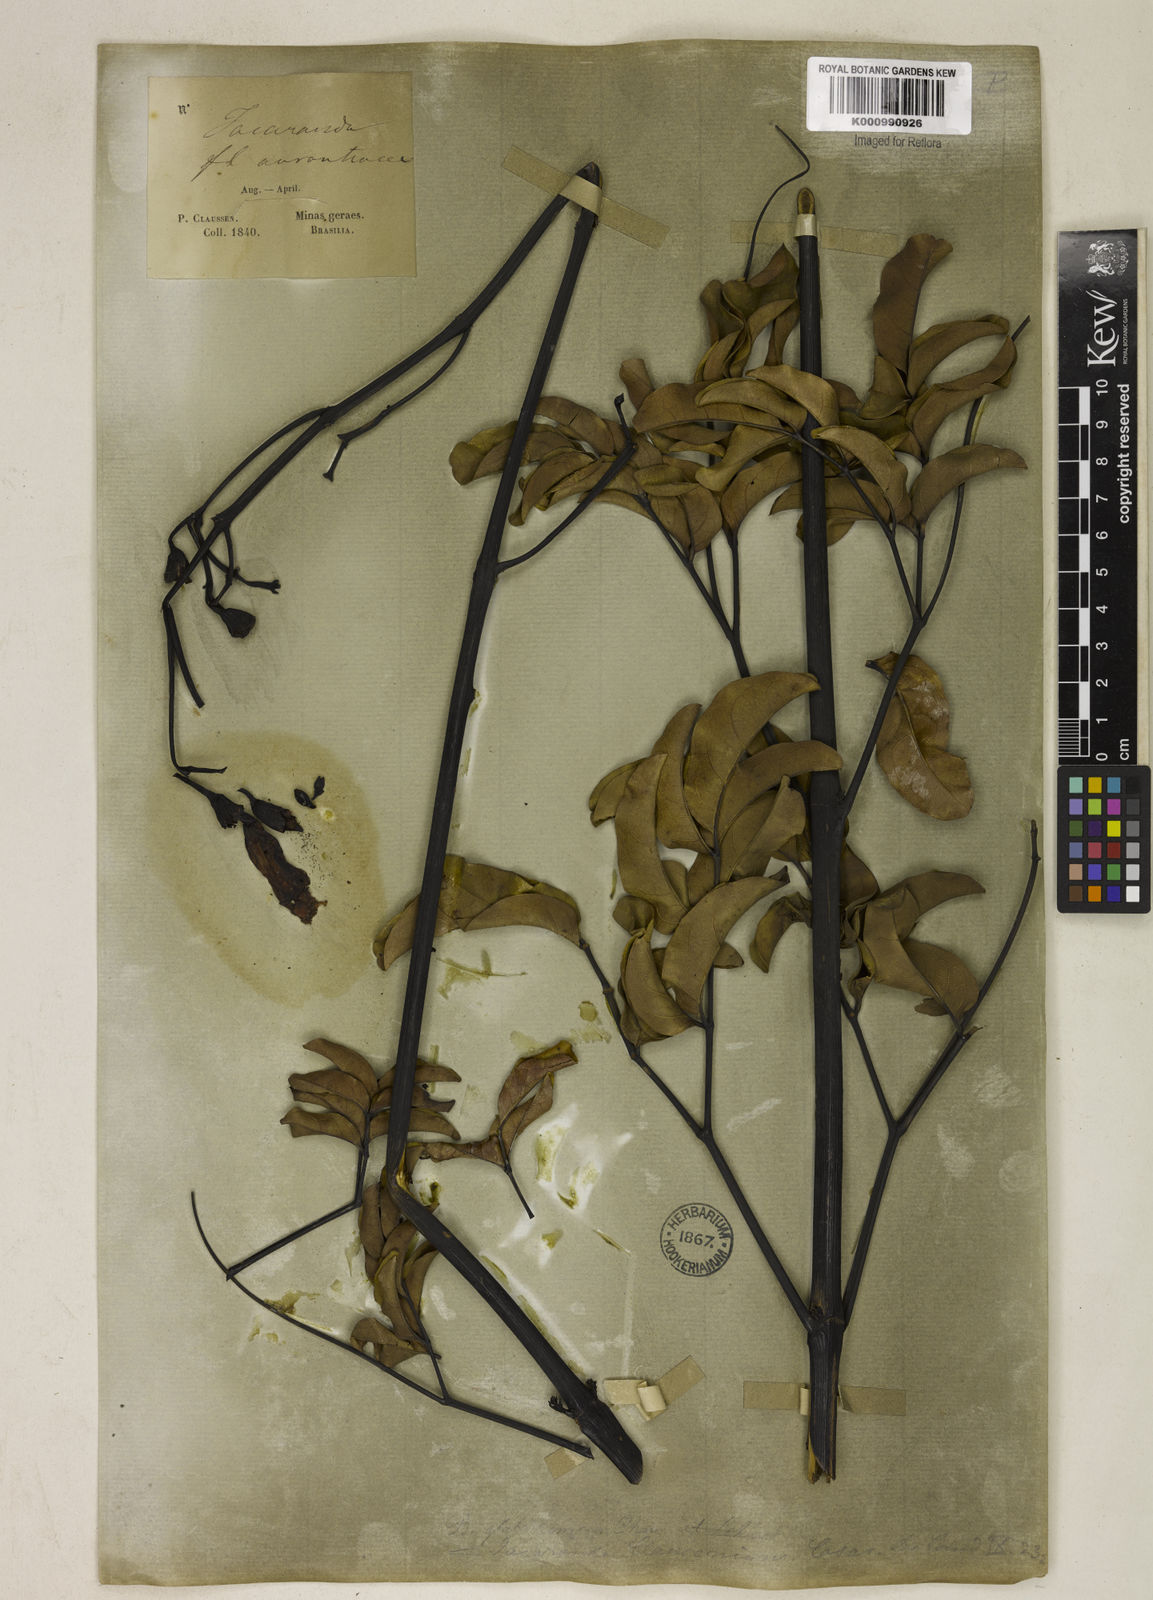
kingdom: Plantae
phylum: Tracheophyta
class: Magnoliopsida
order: Lamiales
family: Bignoniaceae
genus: Adenocalymma
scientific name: Adenocalymma pedunculatum
